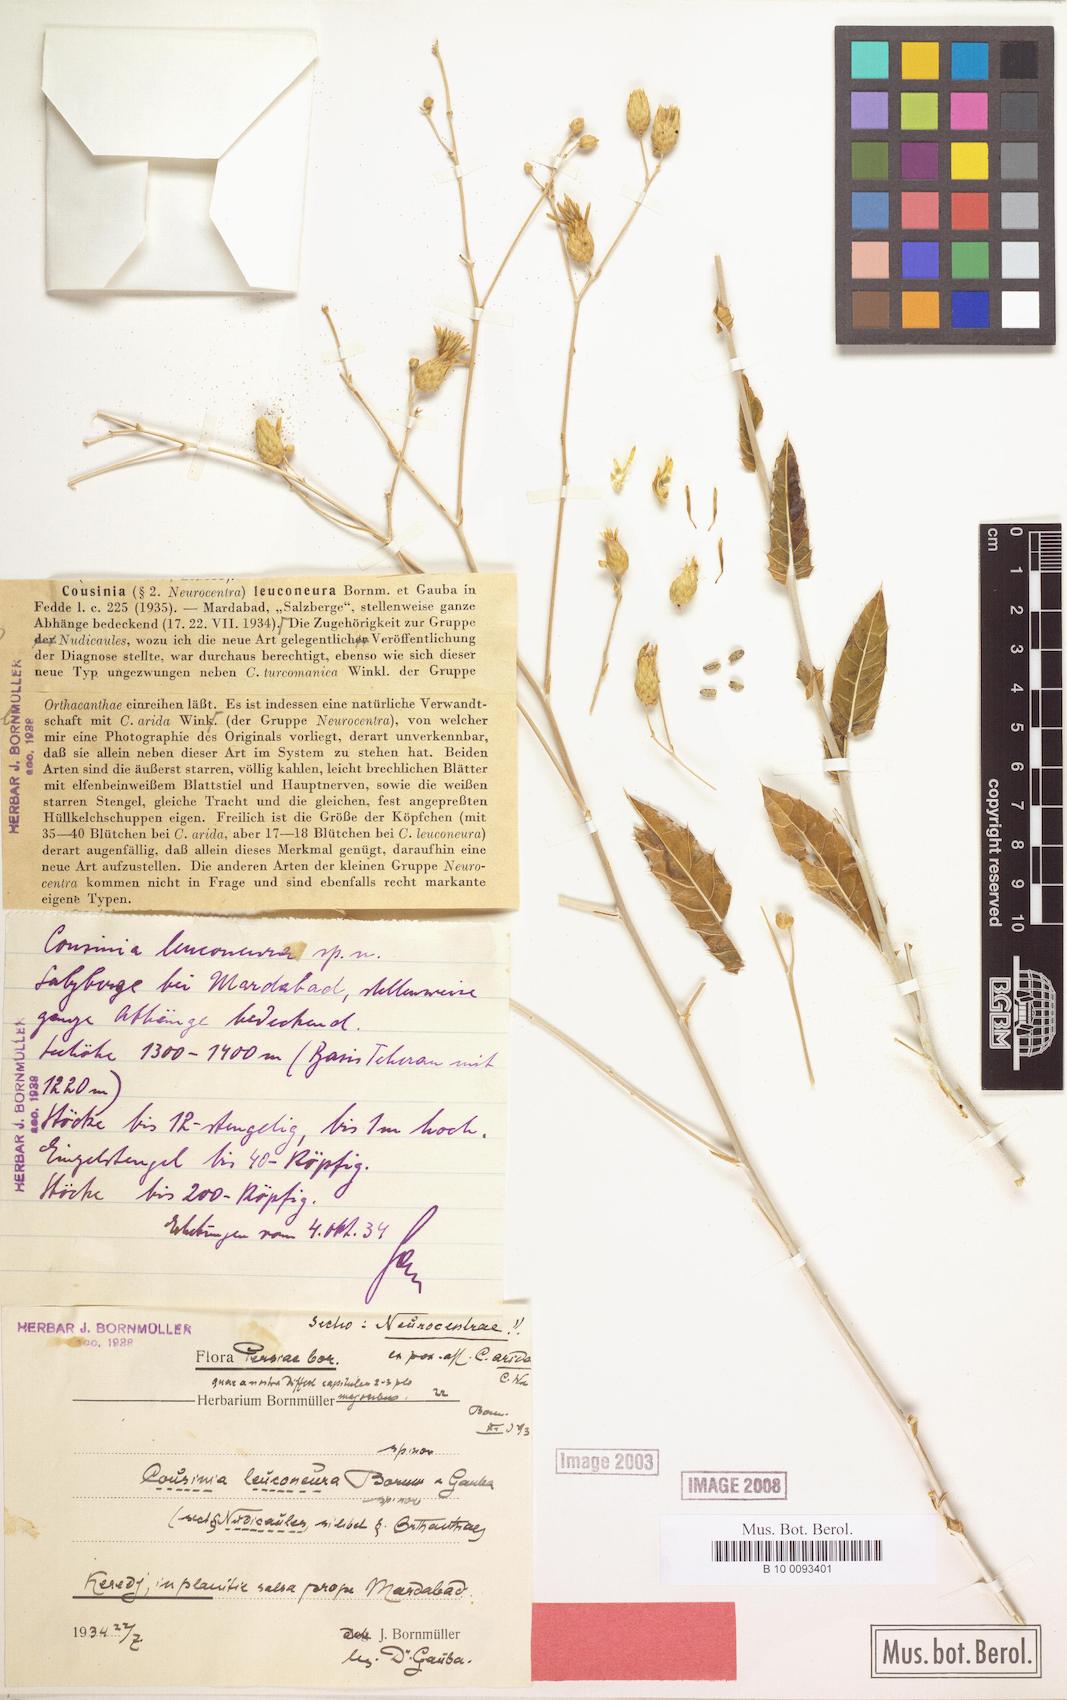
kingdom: Plantae
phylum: Tracheophyta
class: Magnoliopsida
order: Asterales
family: Asteraceae
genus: Cousinia
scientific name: Cousinia deserti
